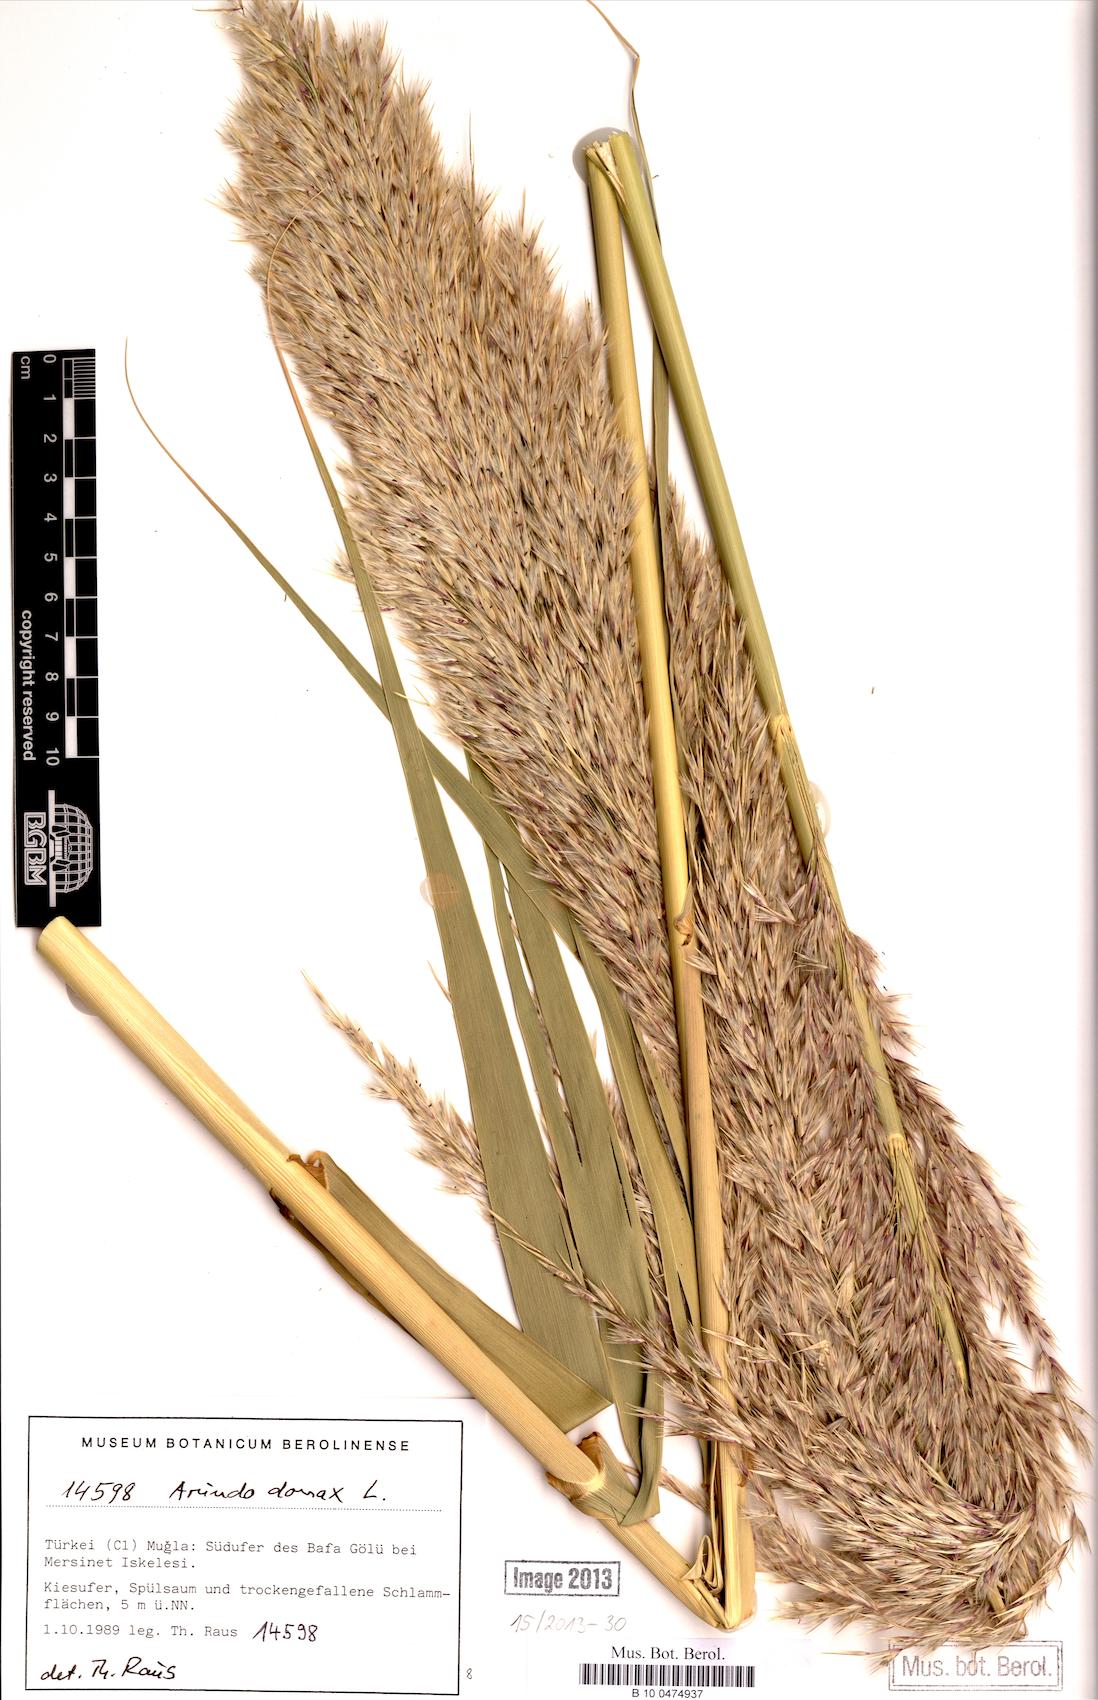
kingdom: Plantae
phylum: Tracheophyta
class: Liliopsida
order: Poales
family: Poaceae
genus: Arundo
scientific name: Arundo donax
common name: Giant reed
